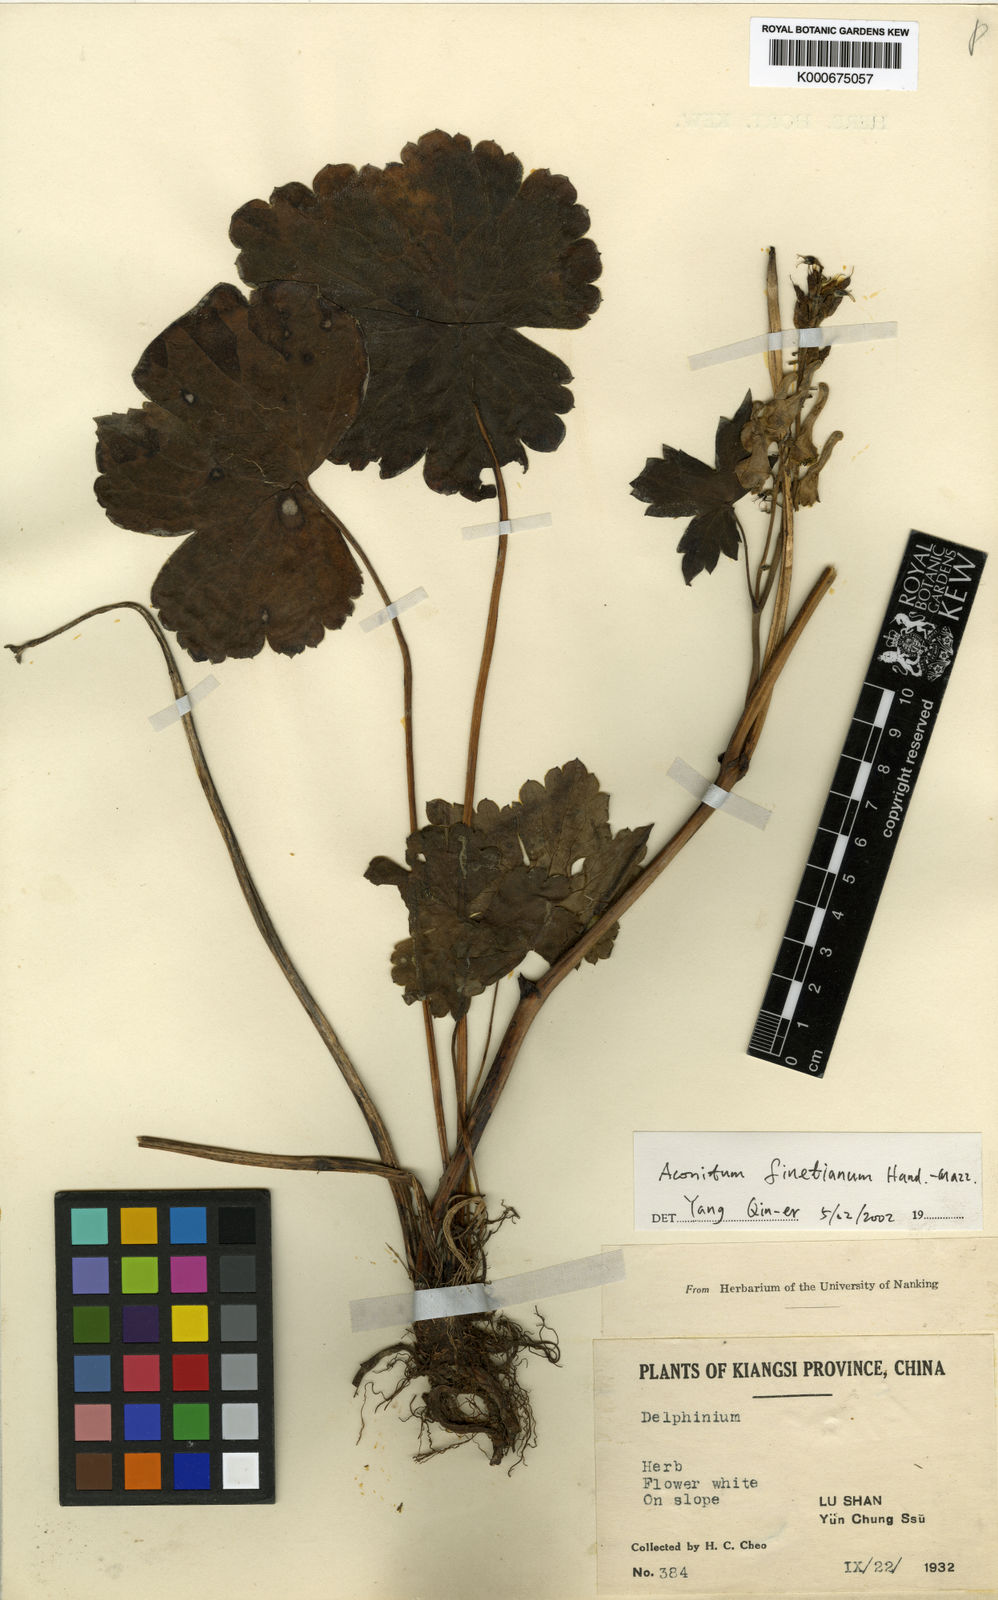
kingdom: Plantae
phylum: Tracheophyta
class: Magnoliopsida
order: Ranunculales
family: Ranunculaceae
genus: Aconitum
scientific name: Aconitum finetianum
